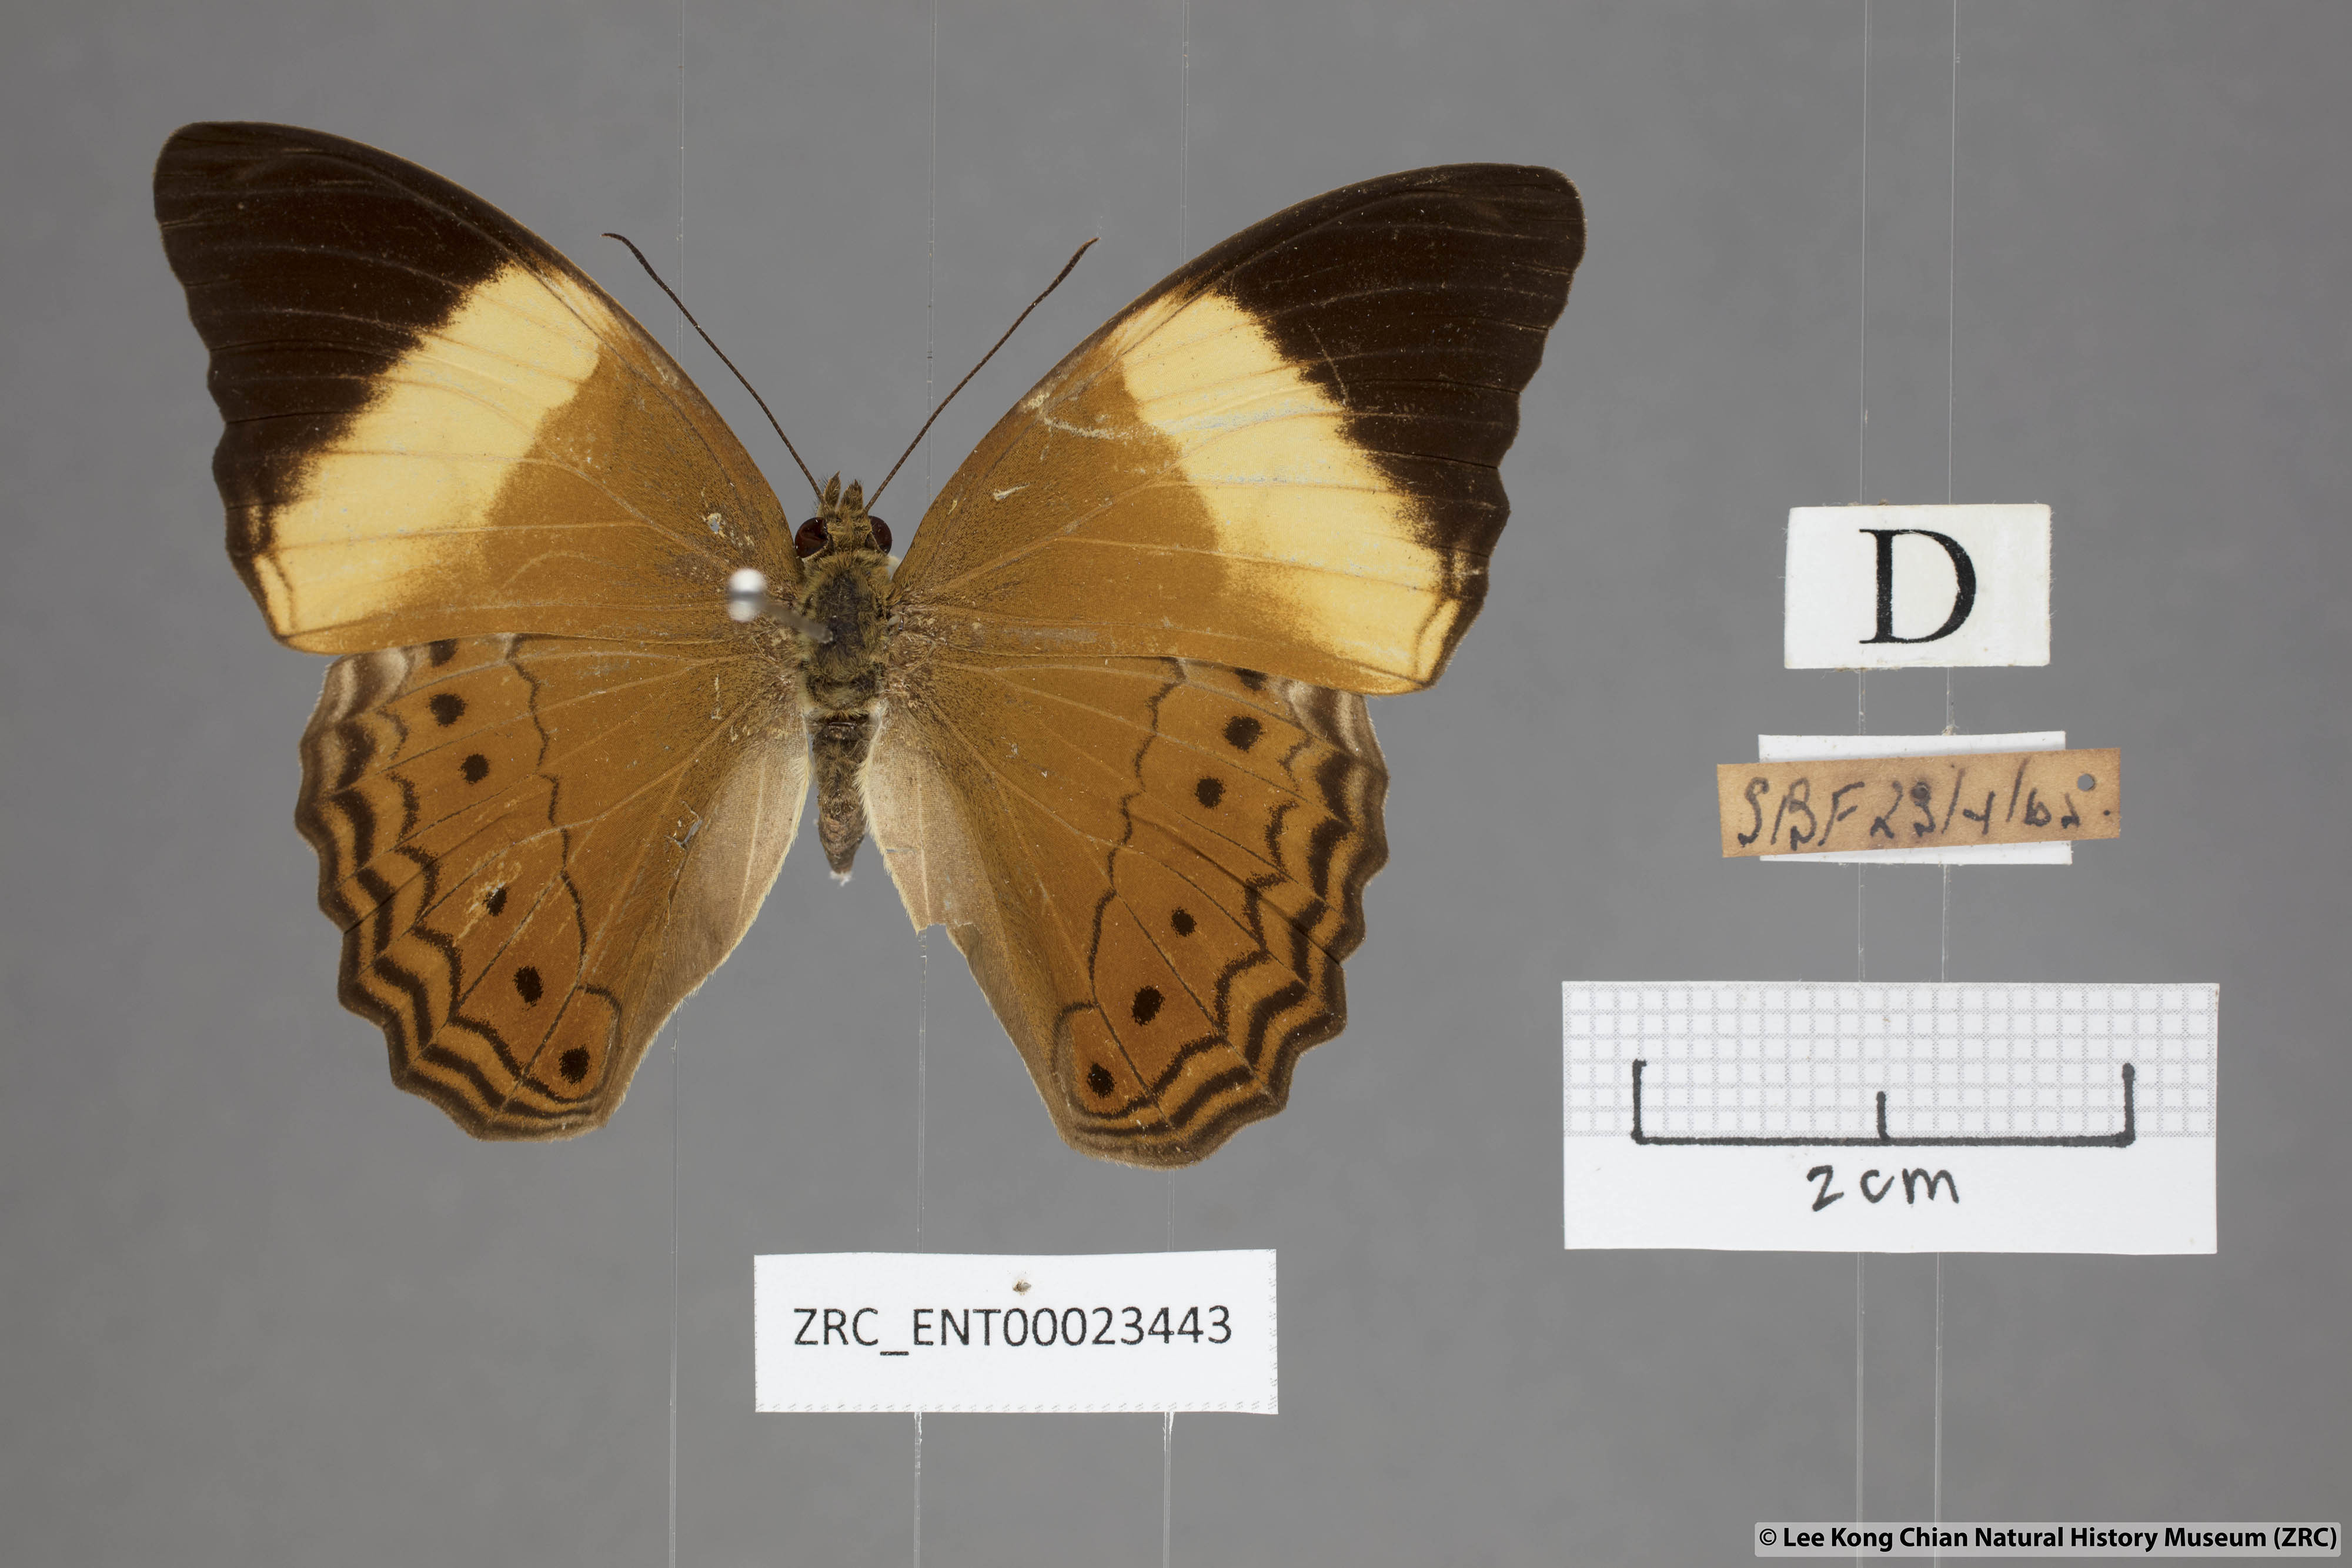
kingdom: Animalia
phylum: Arthropoda
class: Insecta
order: Lepidoptera
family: Nymphalidae
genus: Cirrochroa
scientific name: Cirrochroa orissa
